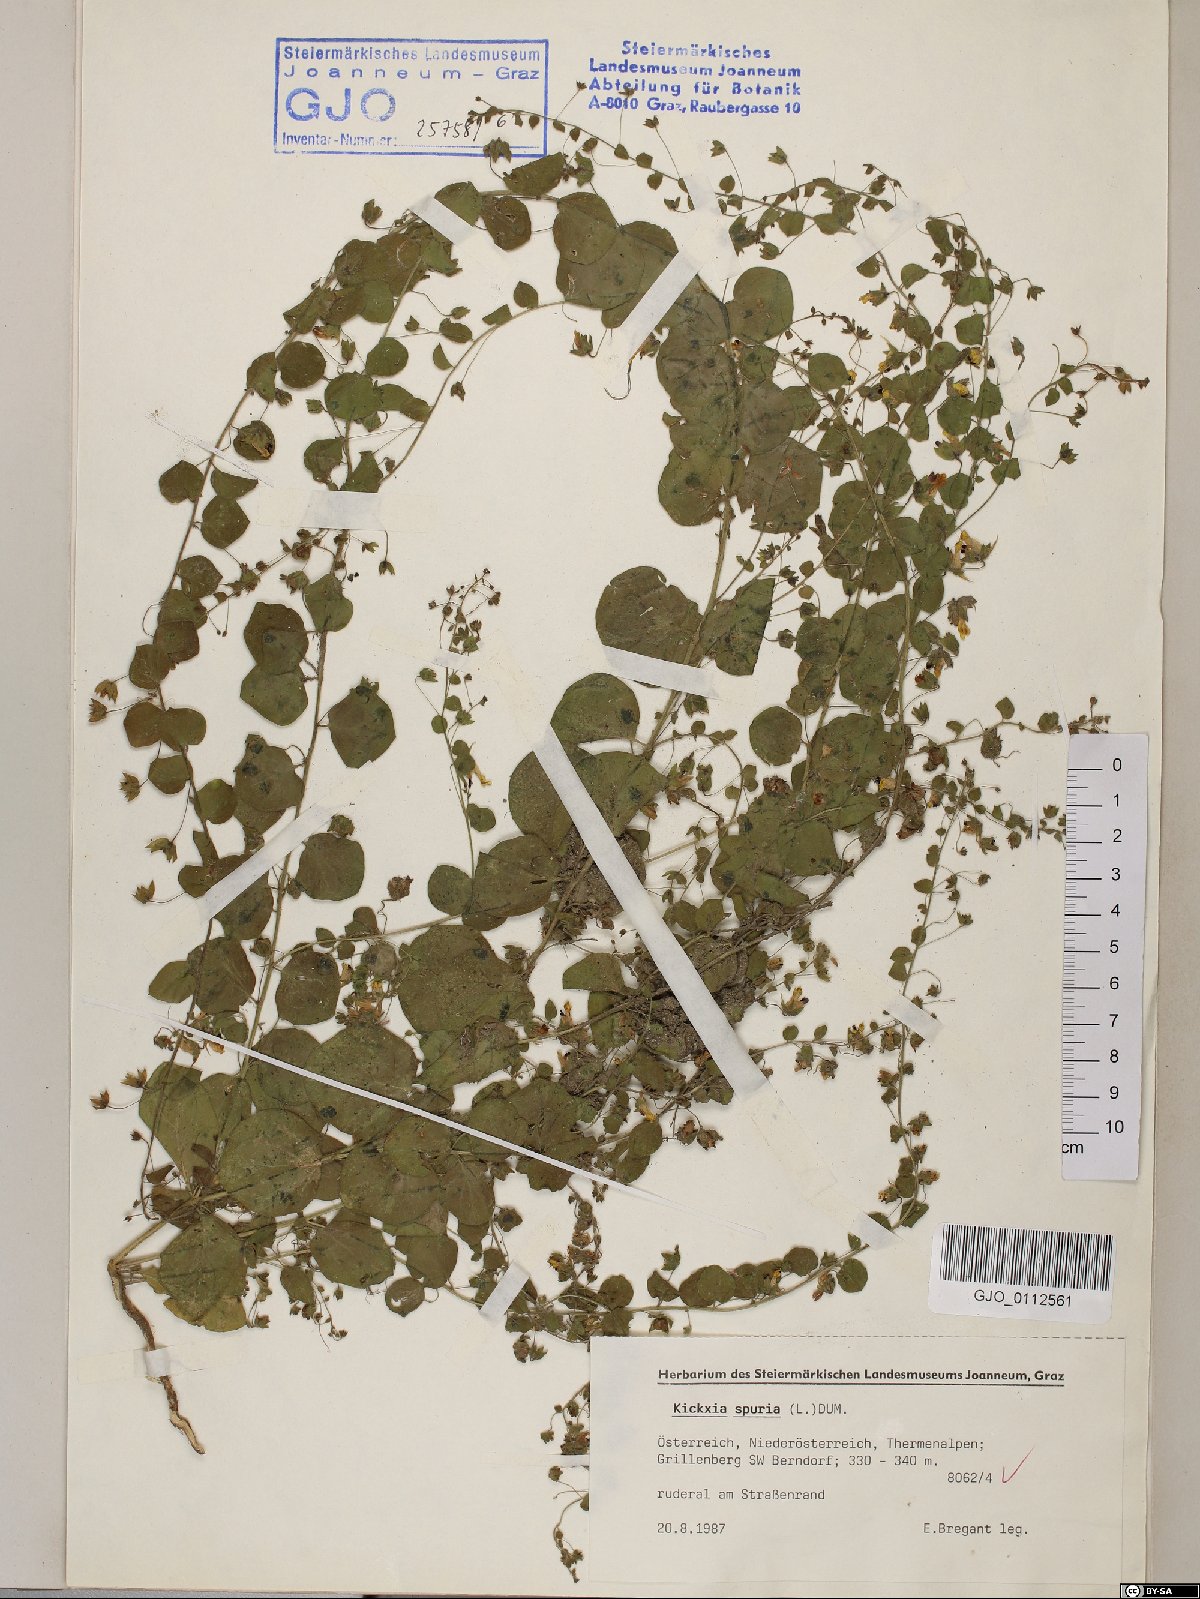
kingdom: Plantae
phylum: Tracheophyta
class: Magnoliopsida
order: Lamiales
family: Plantaginaceae
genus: Kickxia
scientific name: Kickxia spuria
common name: Round-leaved fluellen
